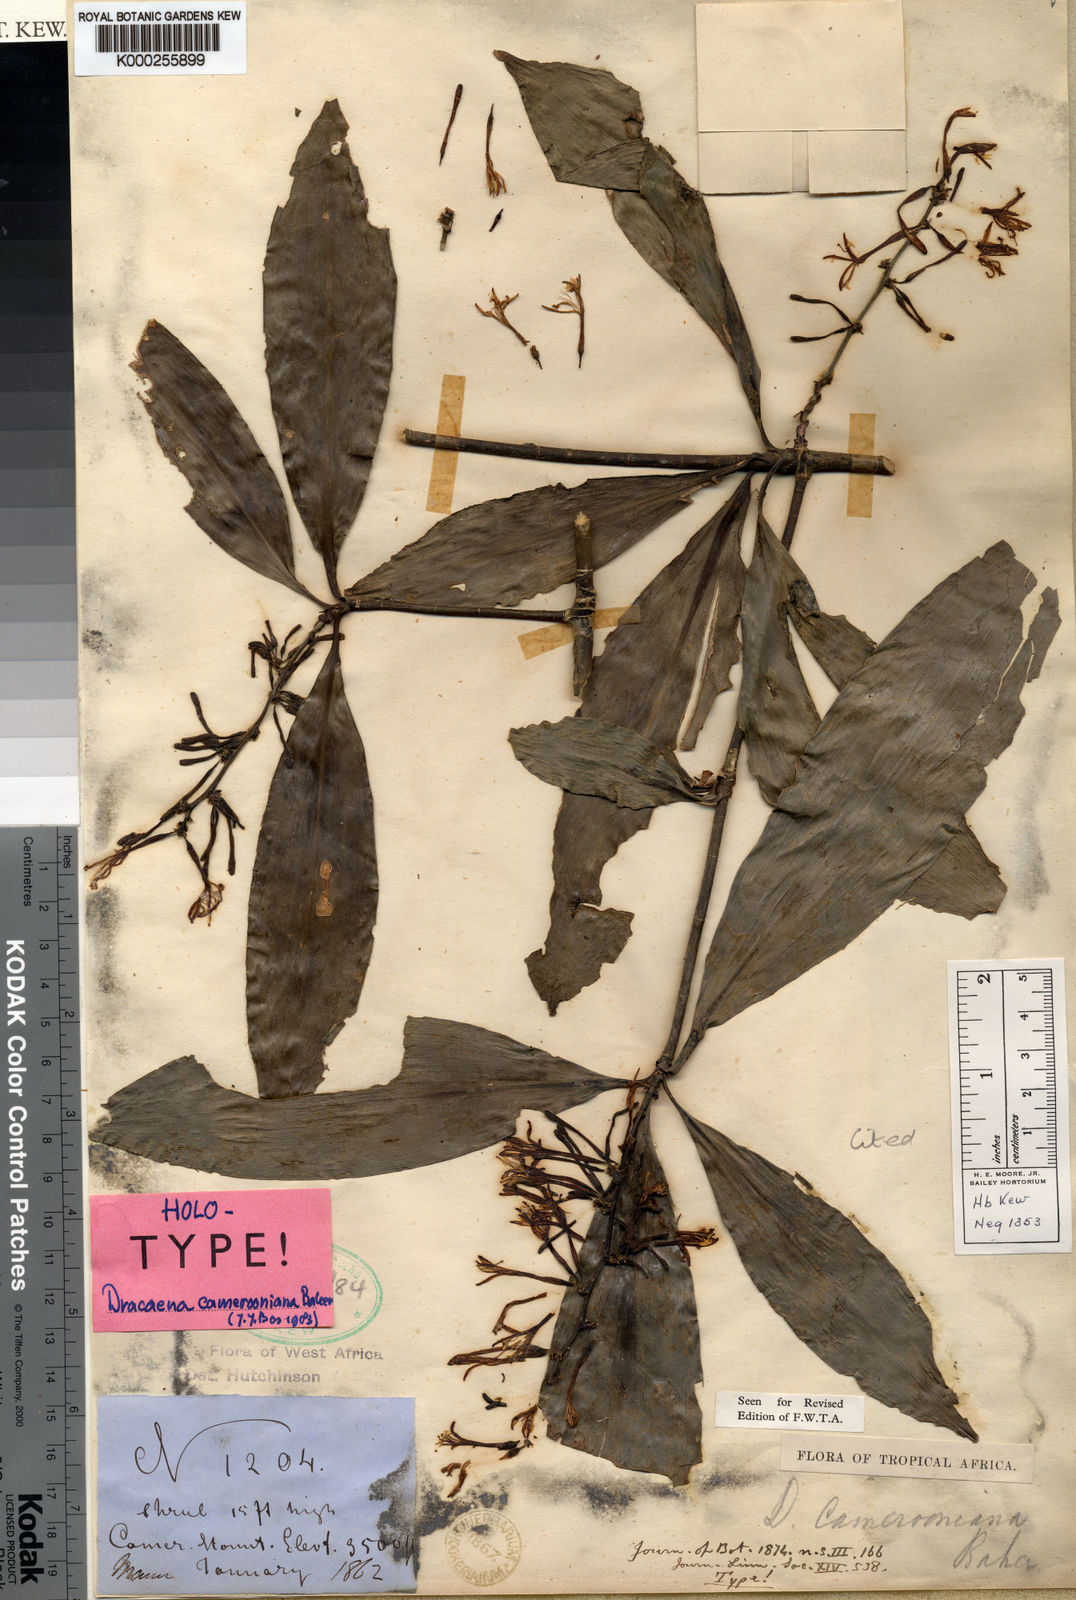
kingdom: Plantae
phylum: Tracheophyta
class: Liliopsida
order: Asparagales
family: Asparagaceae
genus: Dracaena
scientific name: Dracaena camerooniana
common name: Dragon tree
